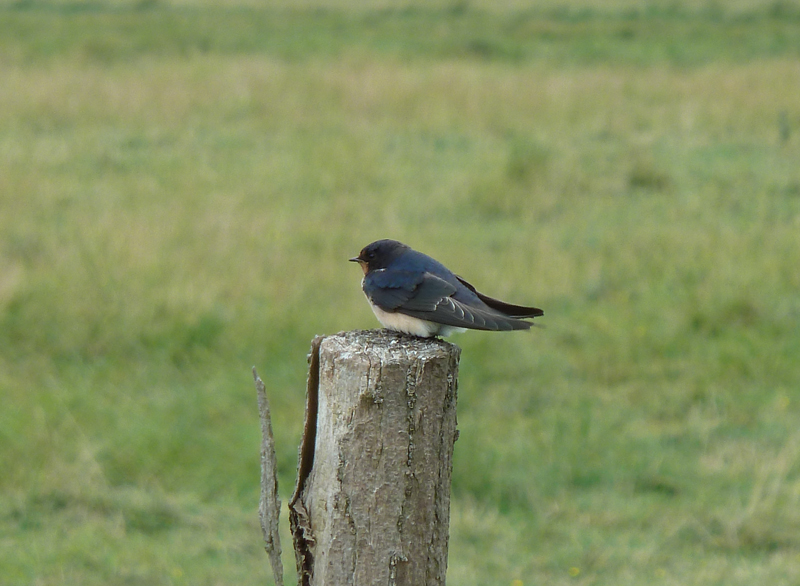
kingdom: Animalia
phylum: Chordata
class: Aves
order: Passeriformes
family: Hirundinidae
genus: Hirundo
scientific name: Hirundo rustica
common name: Barn swallow
